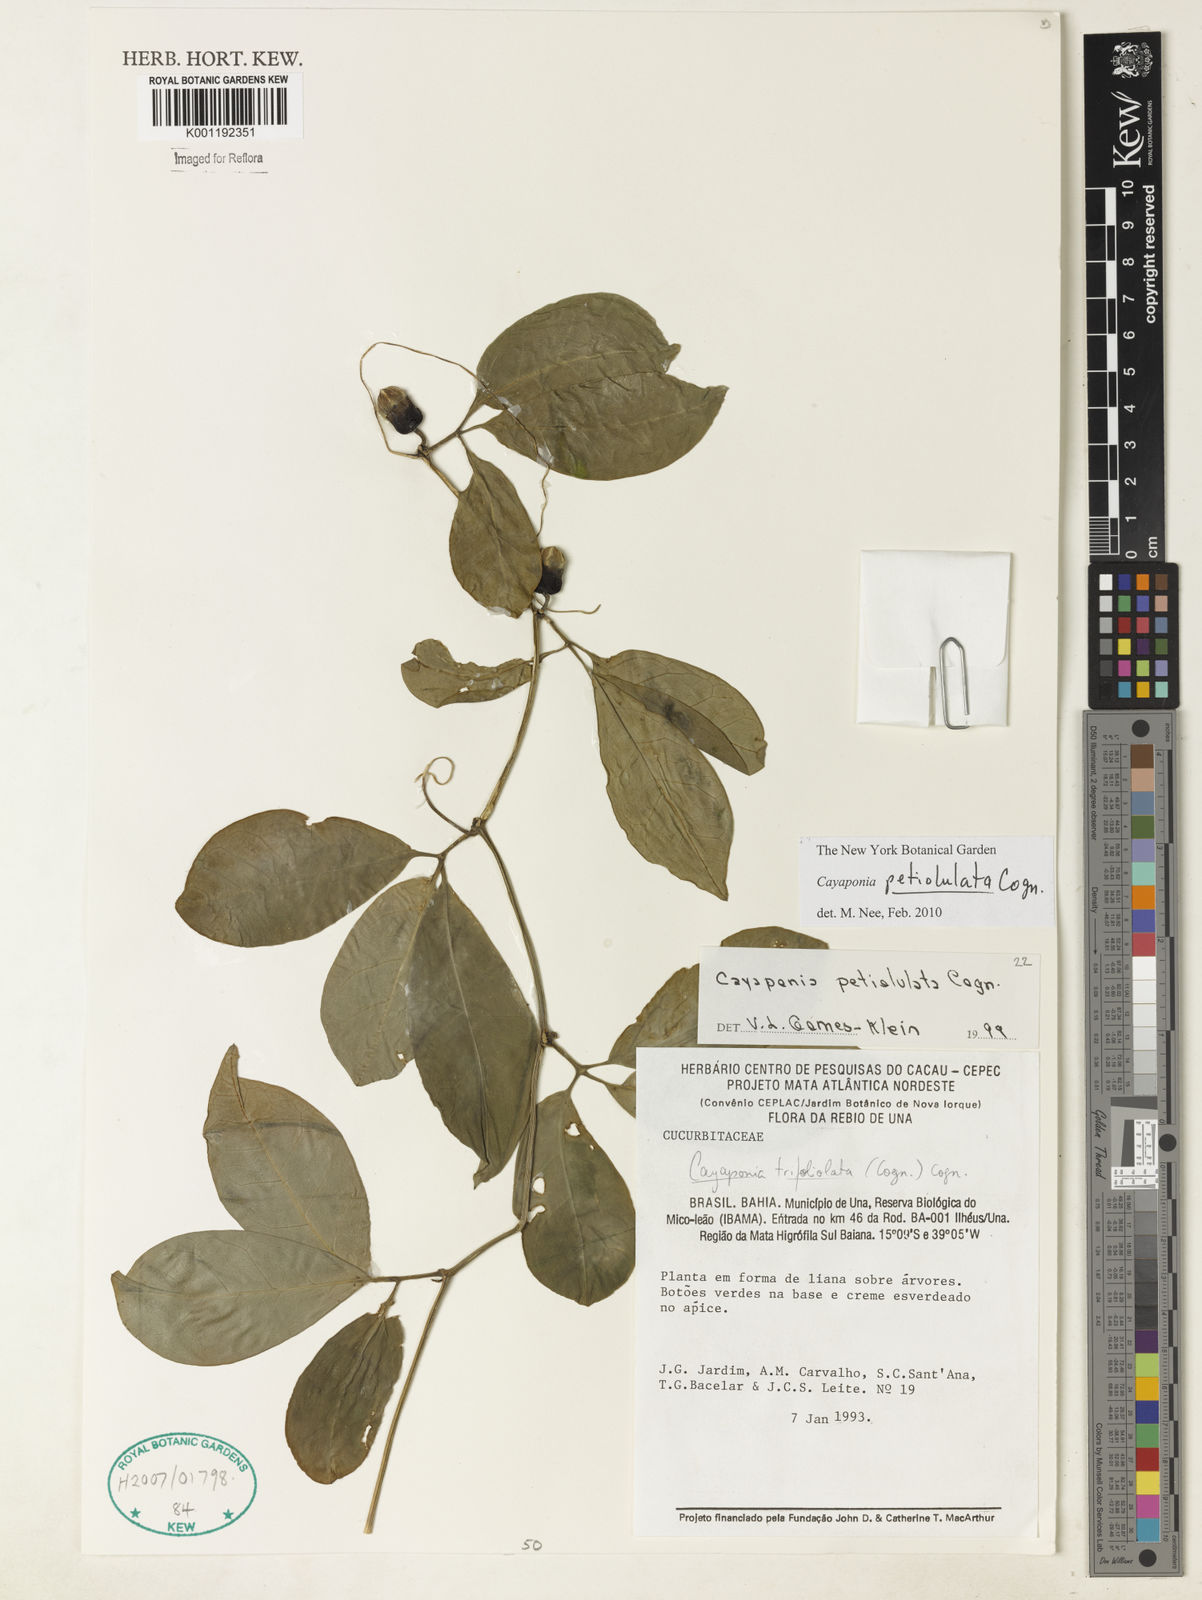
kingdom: Plantae
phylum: Tracheophyta
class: Magnoliopsida
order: Cucurbitales
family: Cucurbitaceae
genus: Cayaponia
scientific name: Cayaponia petiolulata
